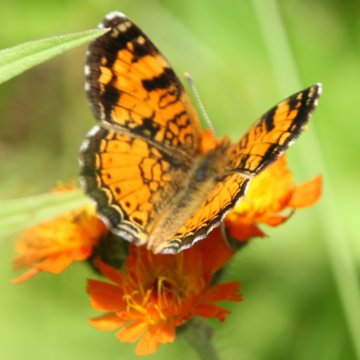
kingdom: Animalia
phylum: Arthropoda
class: Insecta
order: Lepidoptera
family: Nymphalidae
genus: Phyciodes
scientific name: Phyciodes tharos
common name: Northern Crescent
